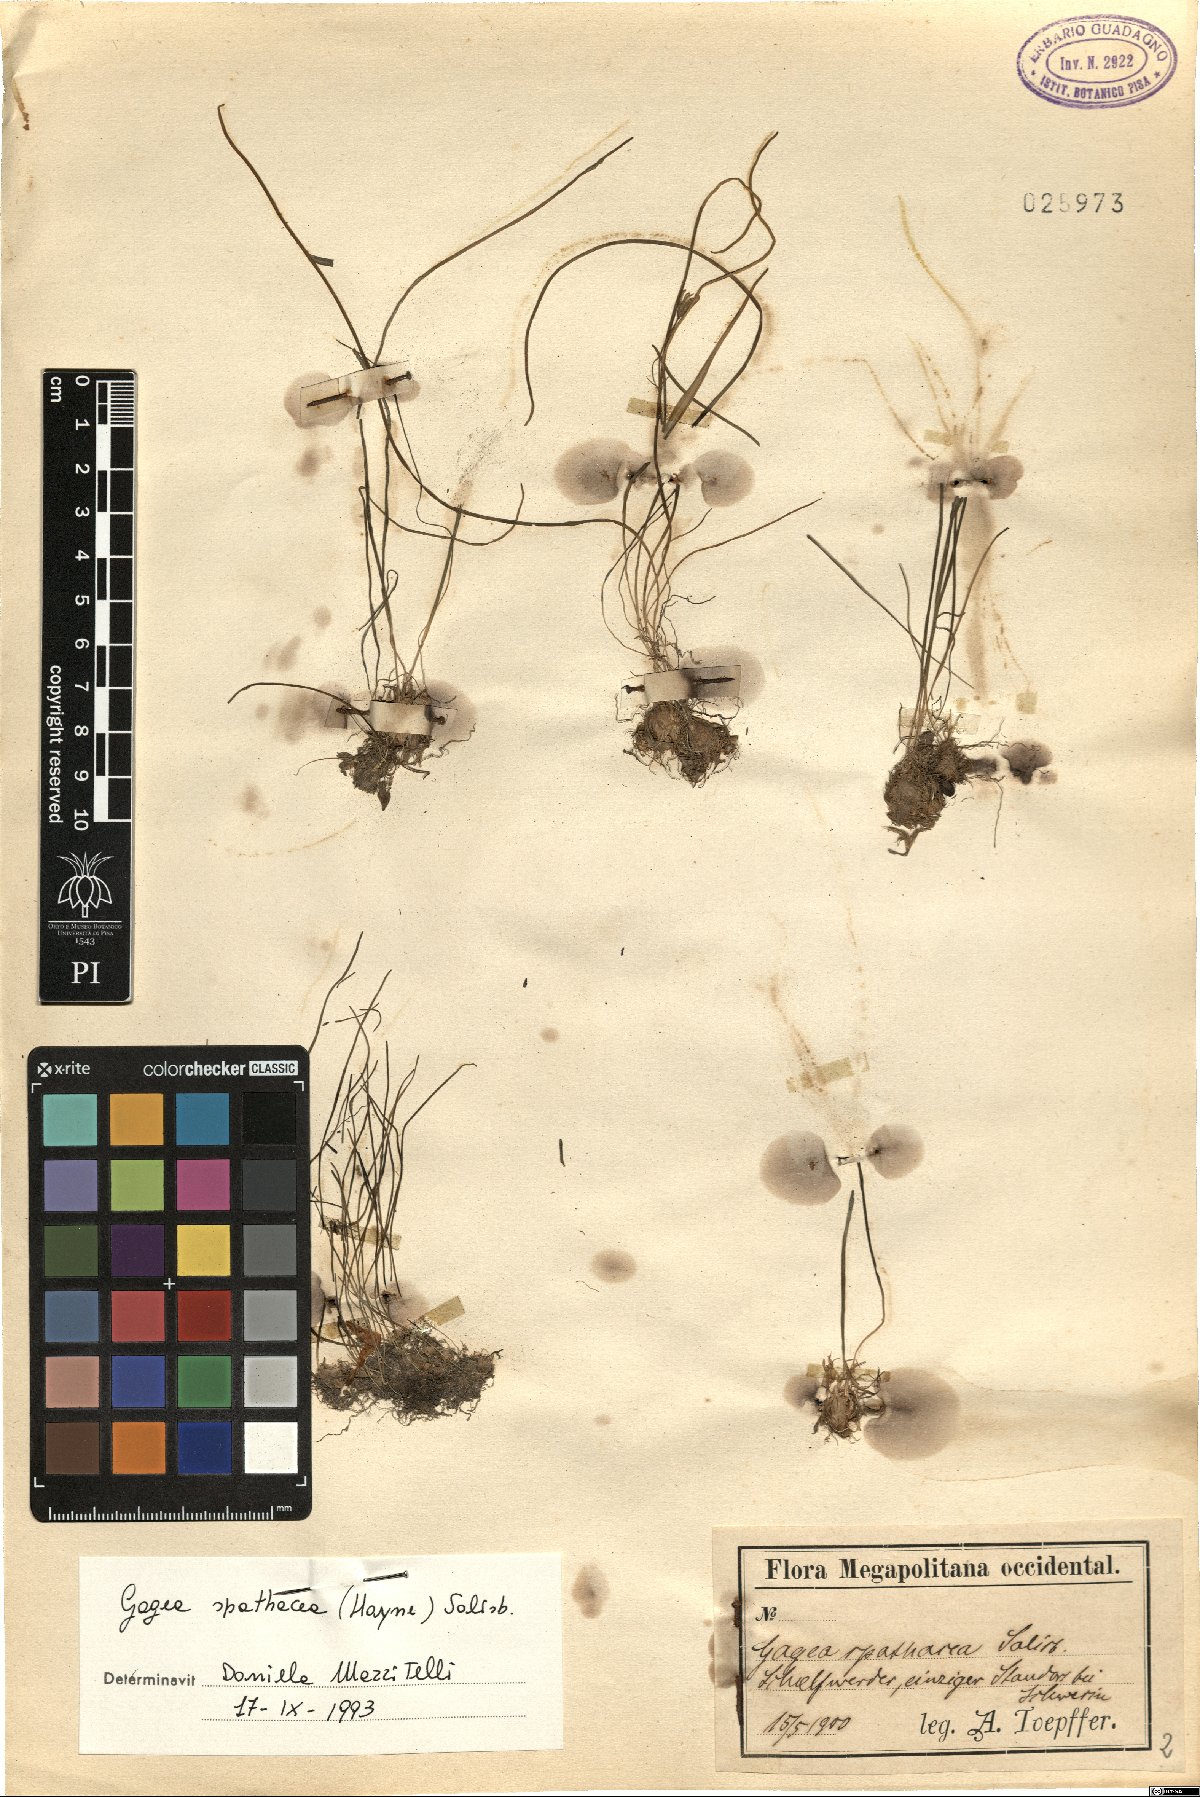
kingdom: Plantae
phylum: Tracheophyta
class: Liliopsida
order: Liliales
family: Liliaceae
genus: Gagea
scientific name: Gagea spathacea
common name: Belgian gagea
